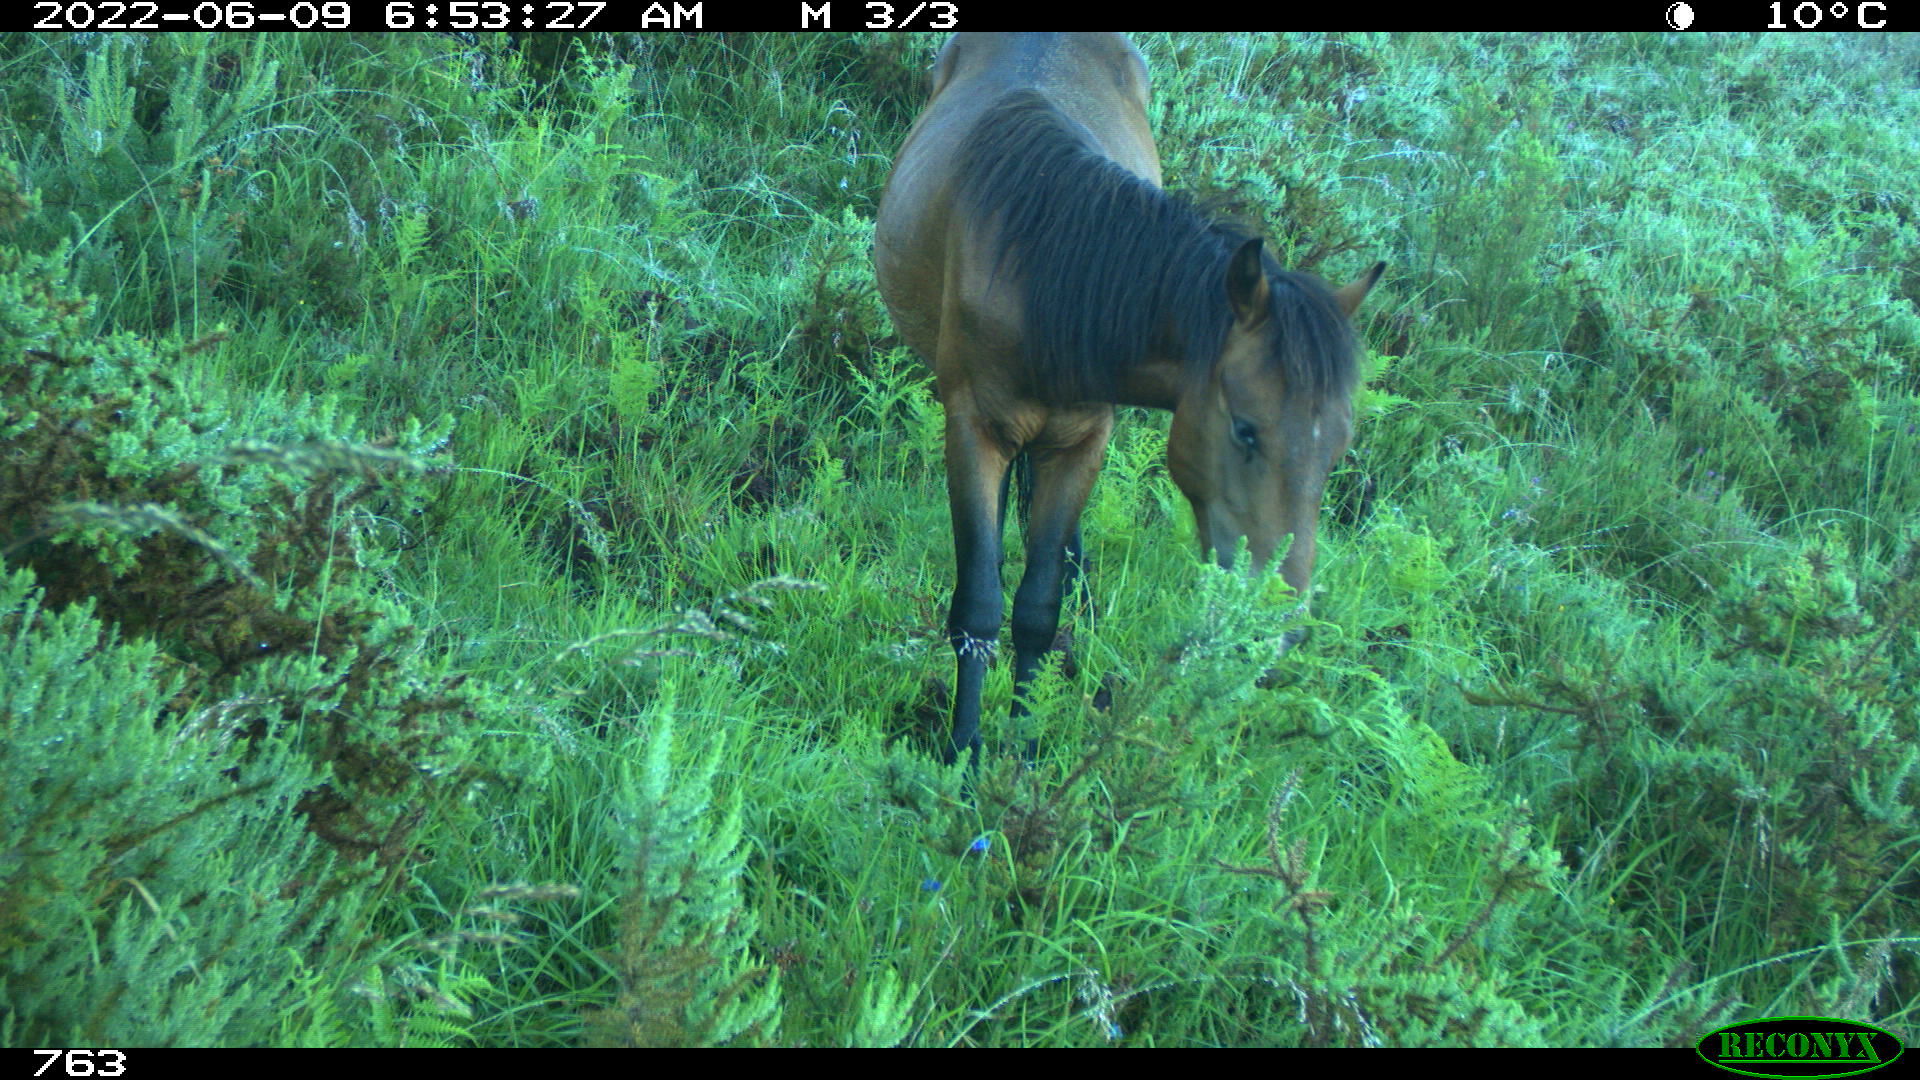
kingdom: Animalia
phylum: Chordata
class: Mammalia
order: Perissodactyla
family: Equidae
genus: Equus
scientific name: Equus caballus
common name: Horse
